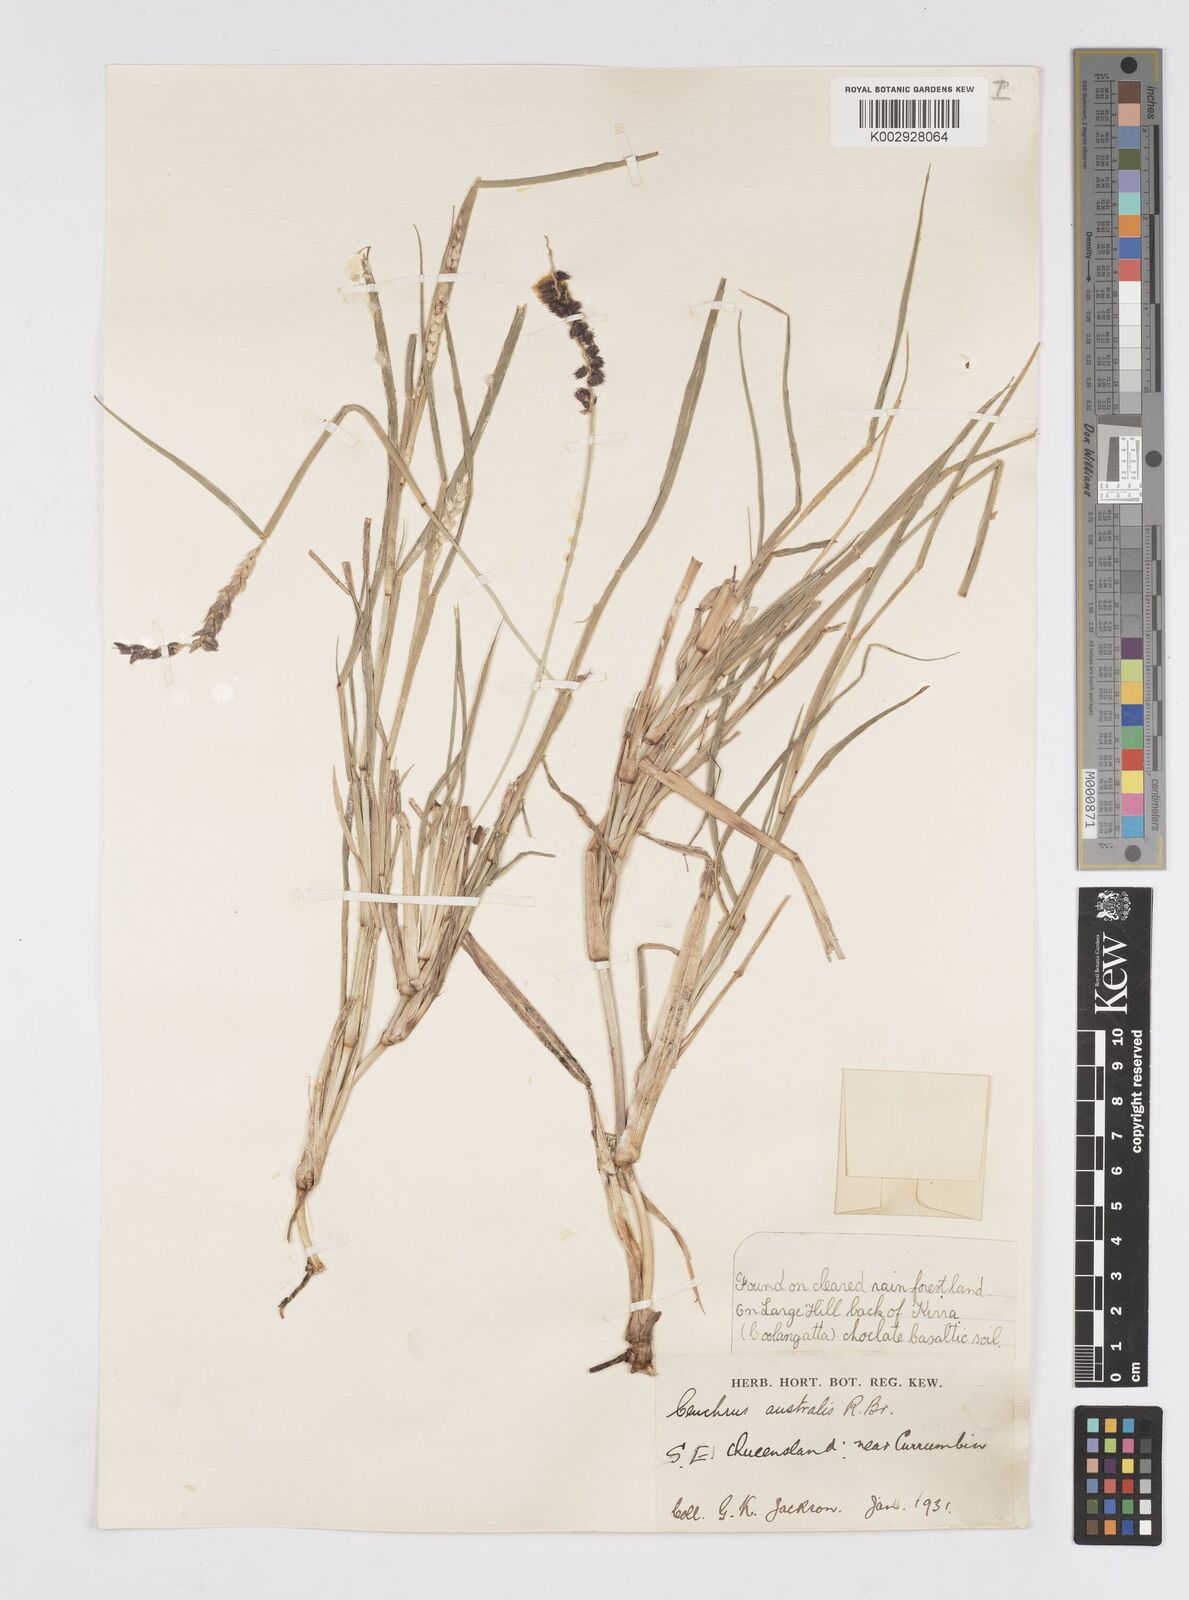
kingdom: Plantae
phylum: Tracheophyta
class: Liliopsida
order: Poales
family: Poaceae
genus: Cenchrus
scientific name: Cenchrus caliculatus
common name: Large bur grass
